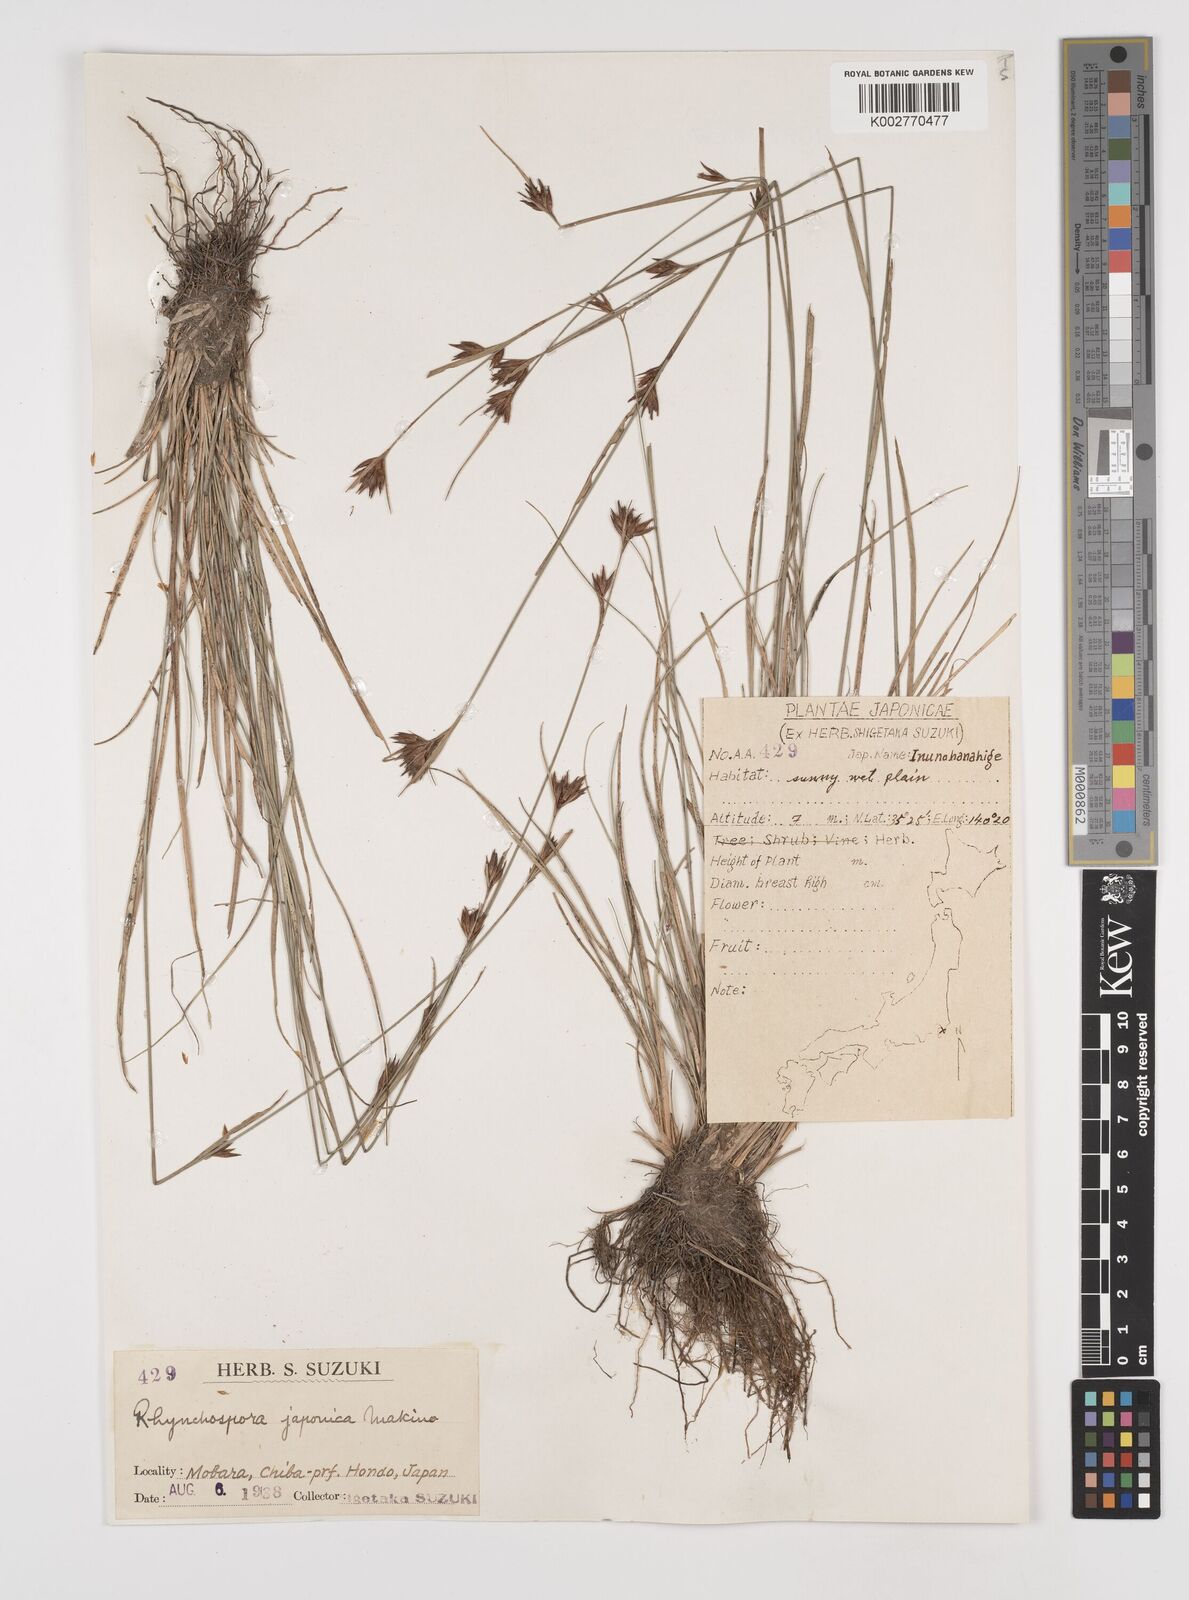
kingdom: Plantae
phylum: Tracheophyta
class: Liliopsida
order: Poales
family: Cyperaceae
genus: Rhynchospora
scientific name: Rhynchospora chinensis
